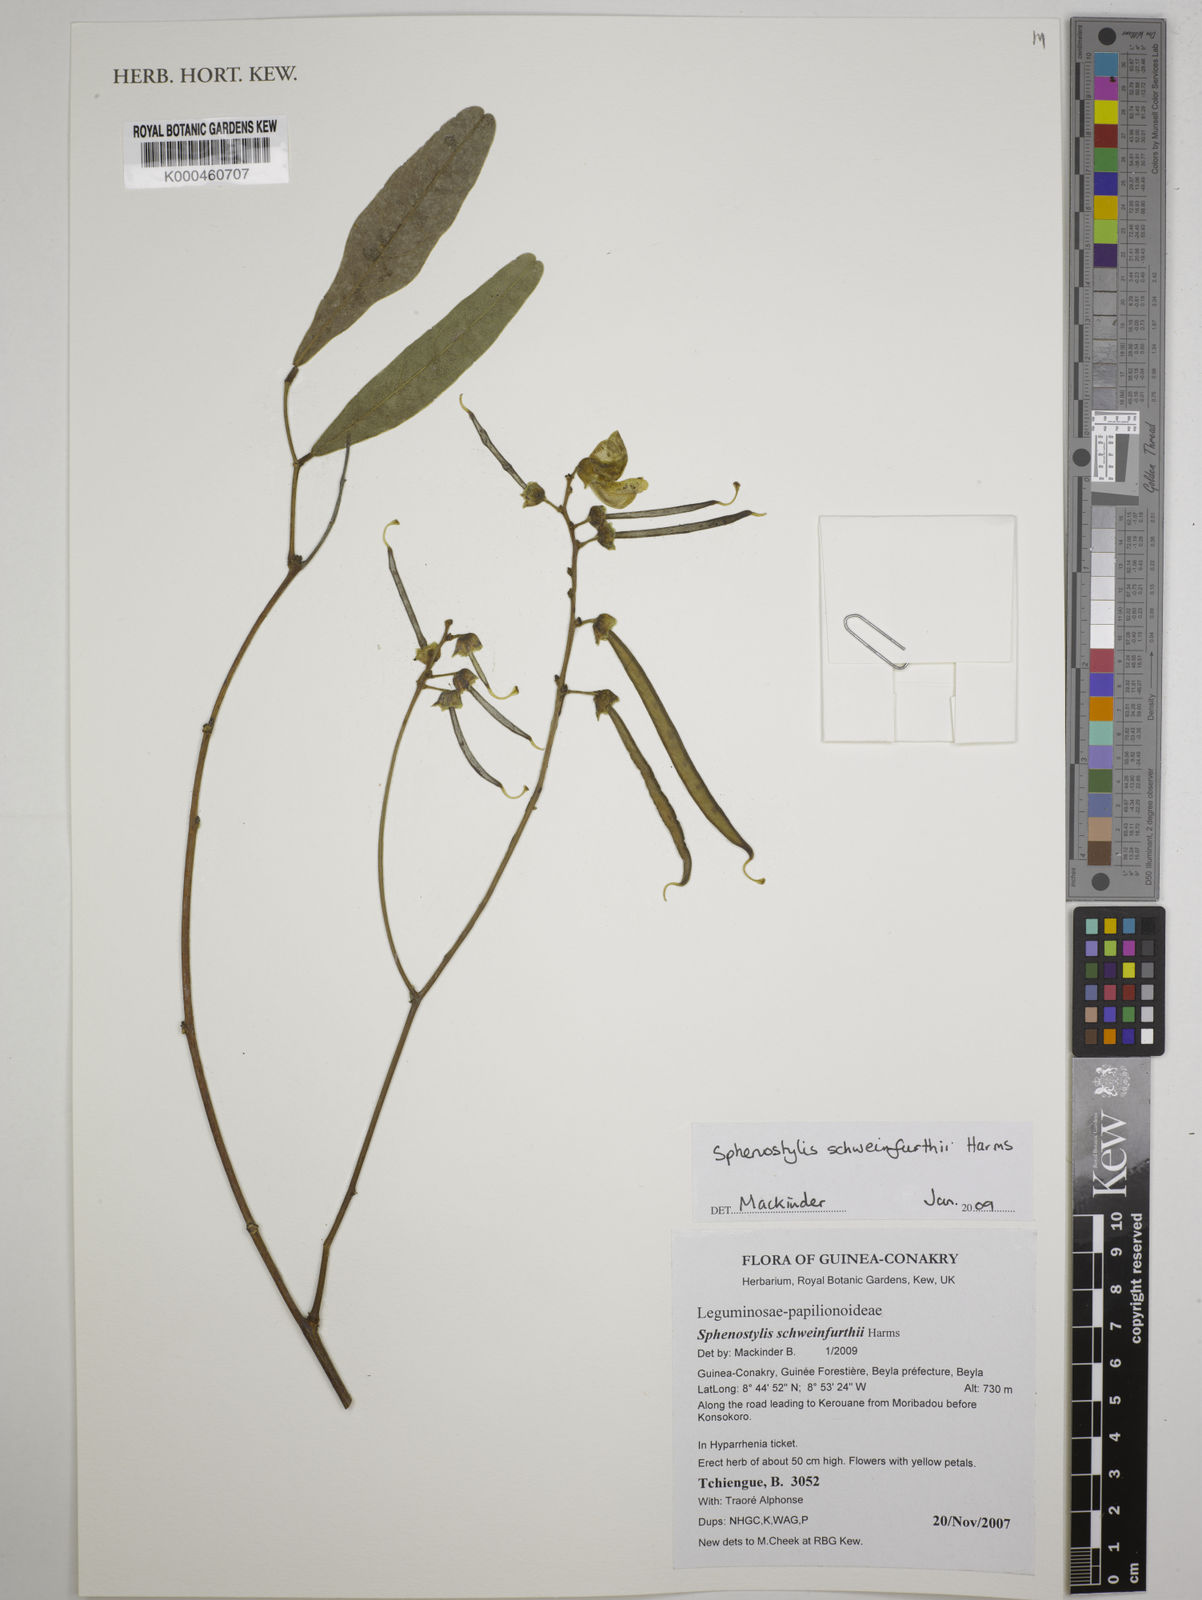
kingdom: Plantae
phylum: Tracheophyta
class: Magnoliopsida
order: Fabales
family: Fabaceae
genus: Sphenostylis
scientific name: Sphenostylis schweinfurthii
